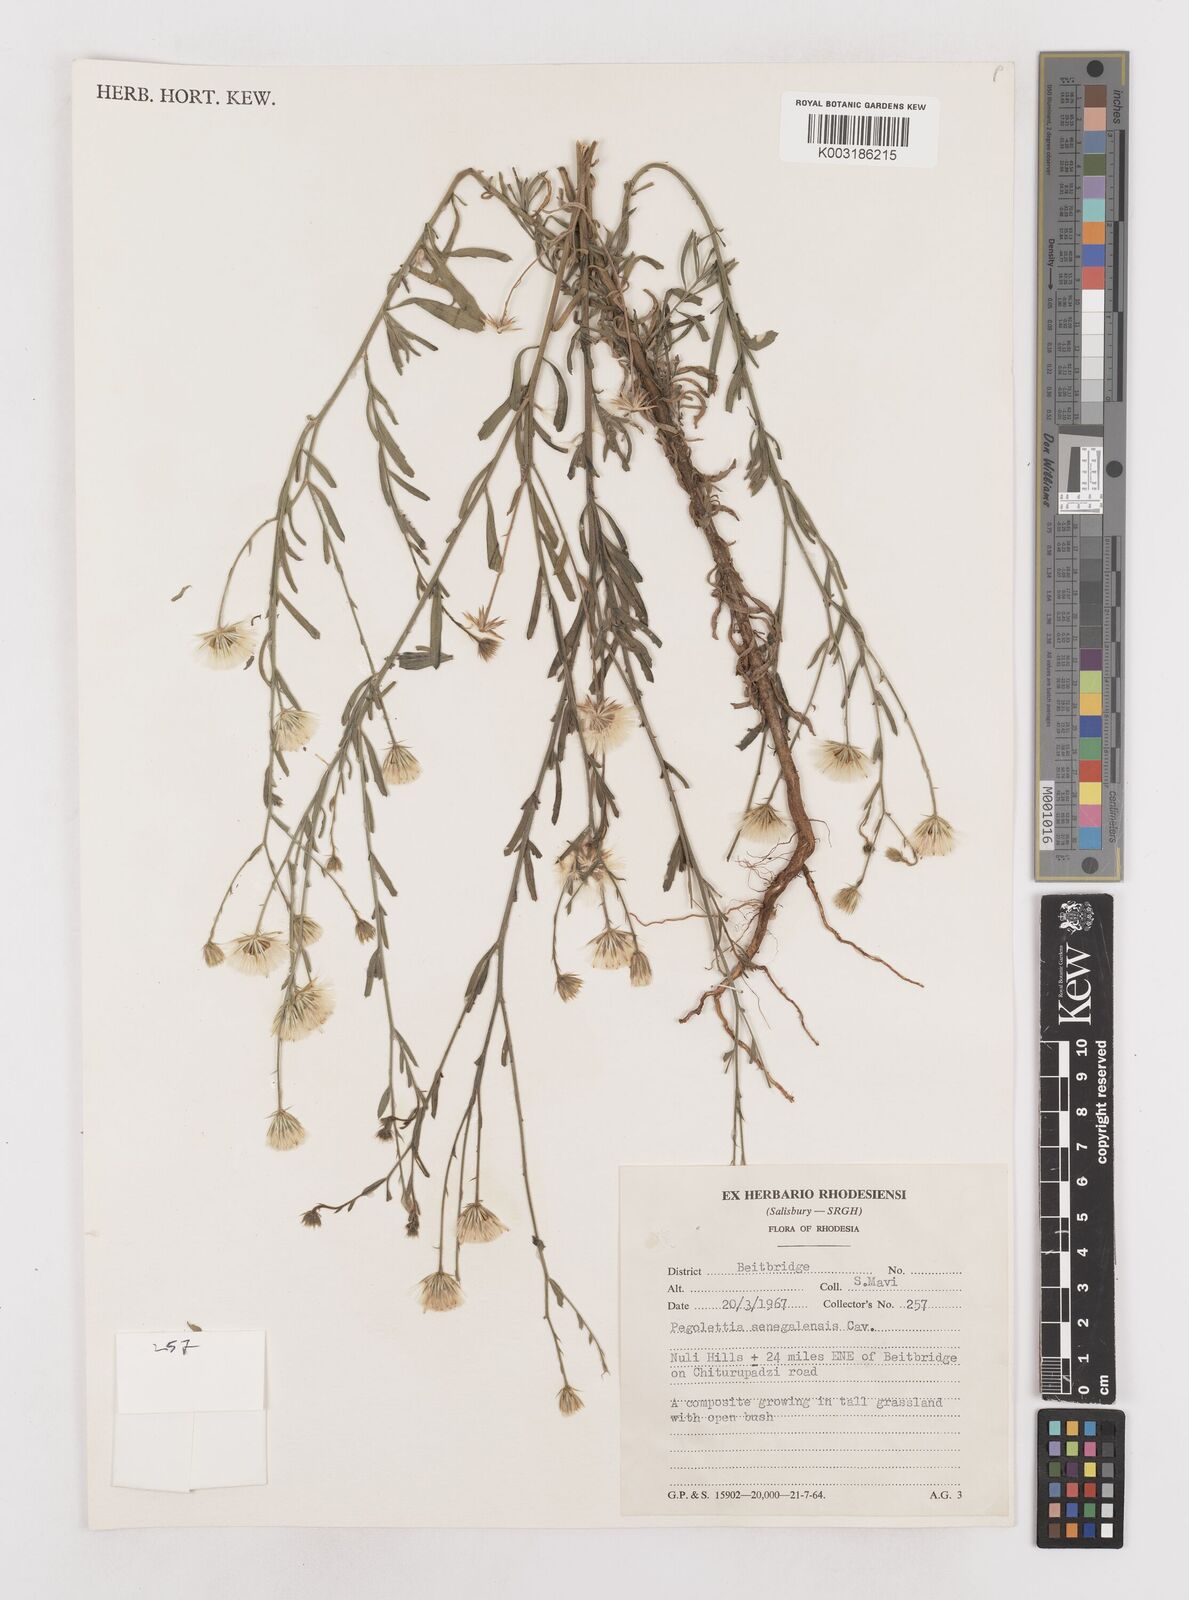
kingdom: Plantae
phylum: Tracheophyta
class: Magnoliopsida
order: Asterales
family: Asteraceae
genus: Pegolettia
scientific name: Pegolettia senegalensis
